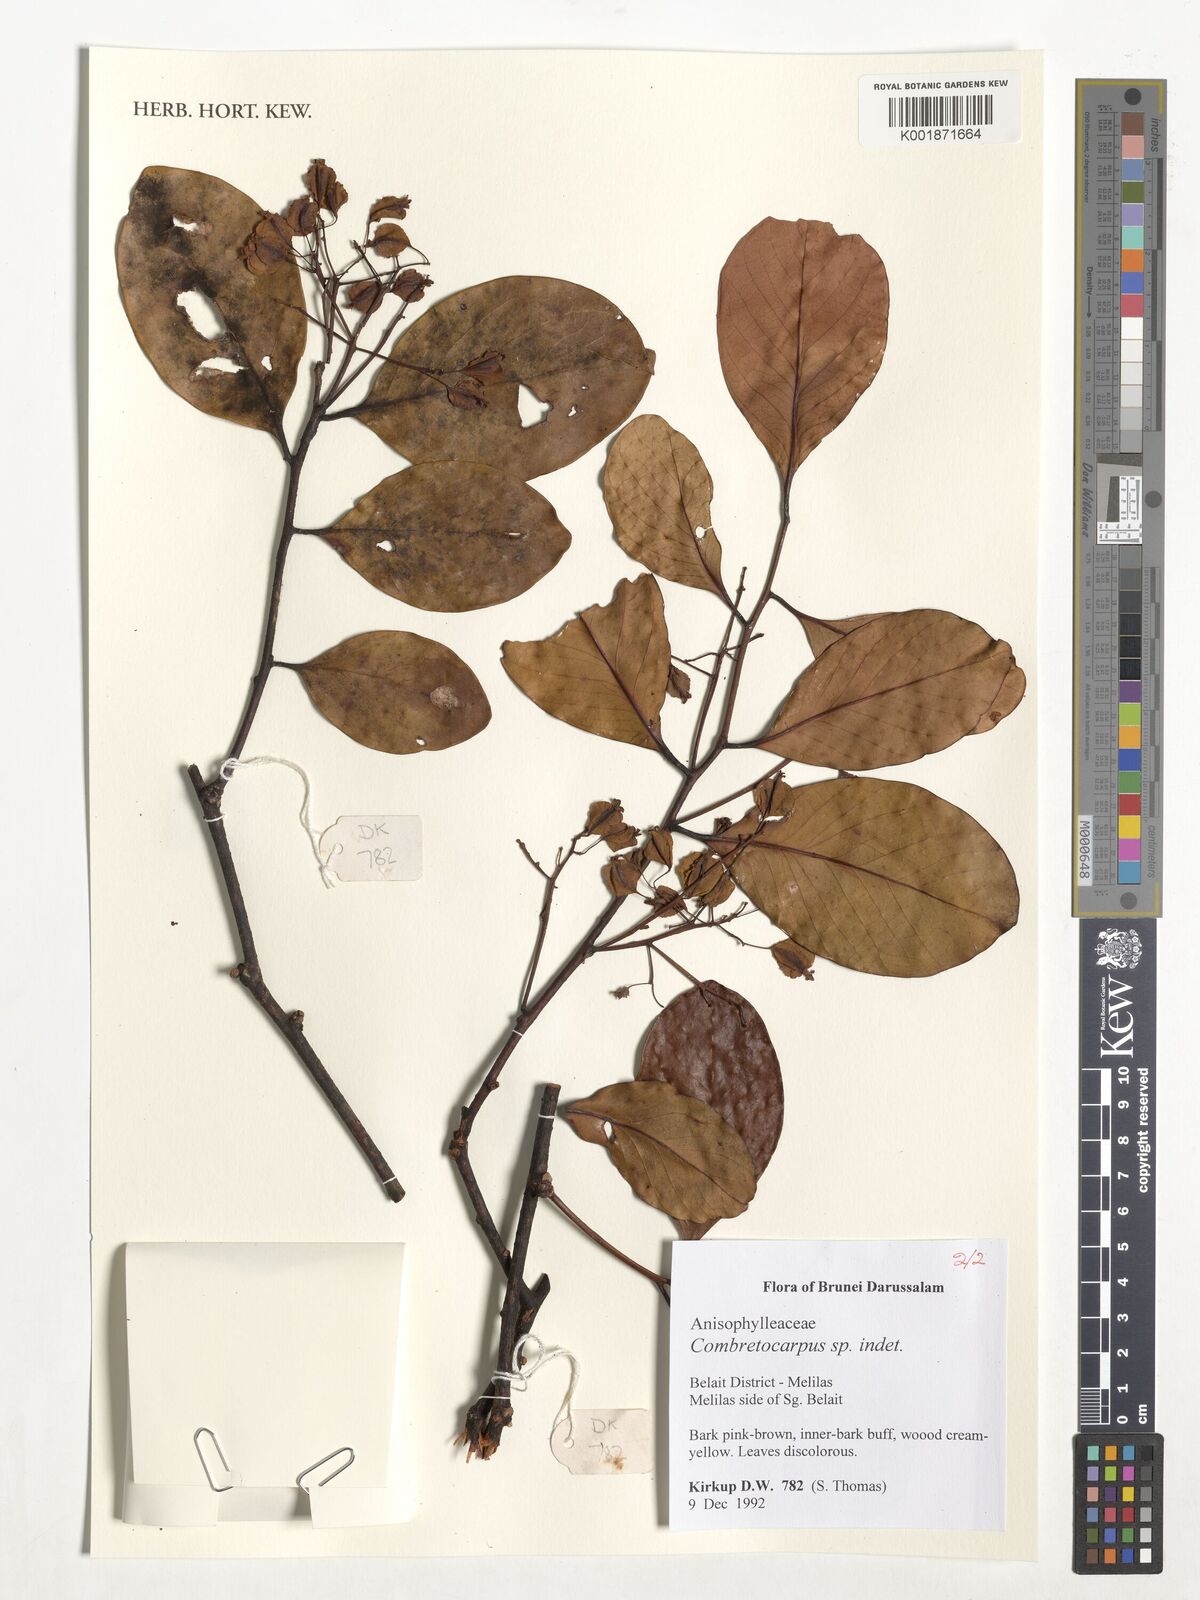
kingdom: Plantae
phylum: Tracheophyta
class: Magnoliopsida
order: Cucurbitales
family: Anisophylleaceae
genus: Combretocarpus
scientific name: Combretocarpus
